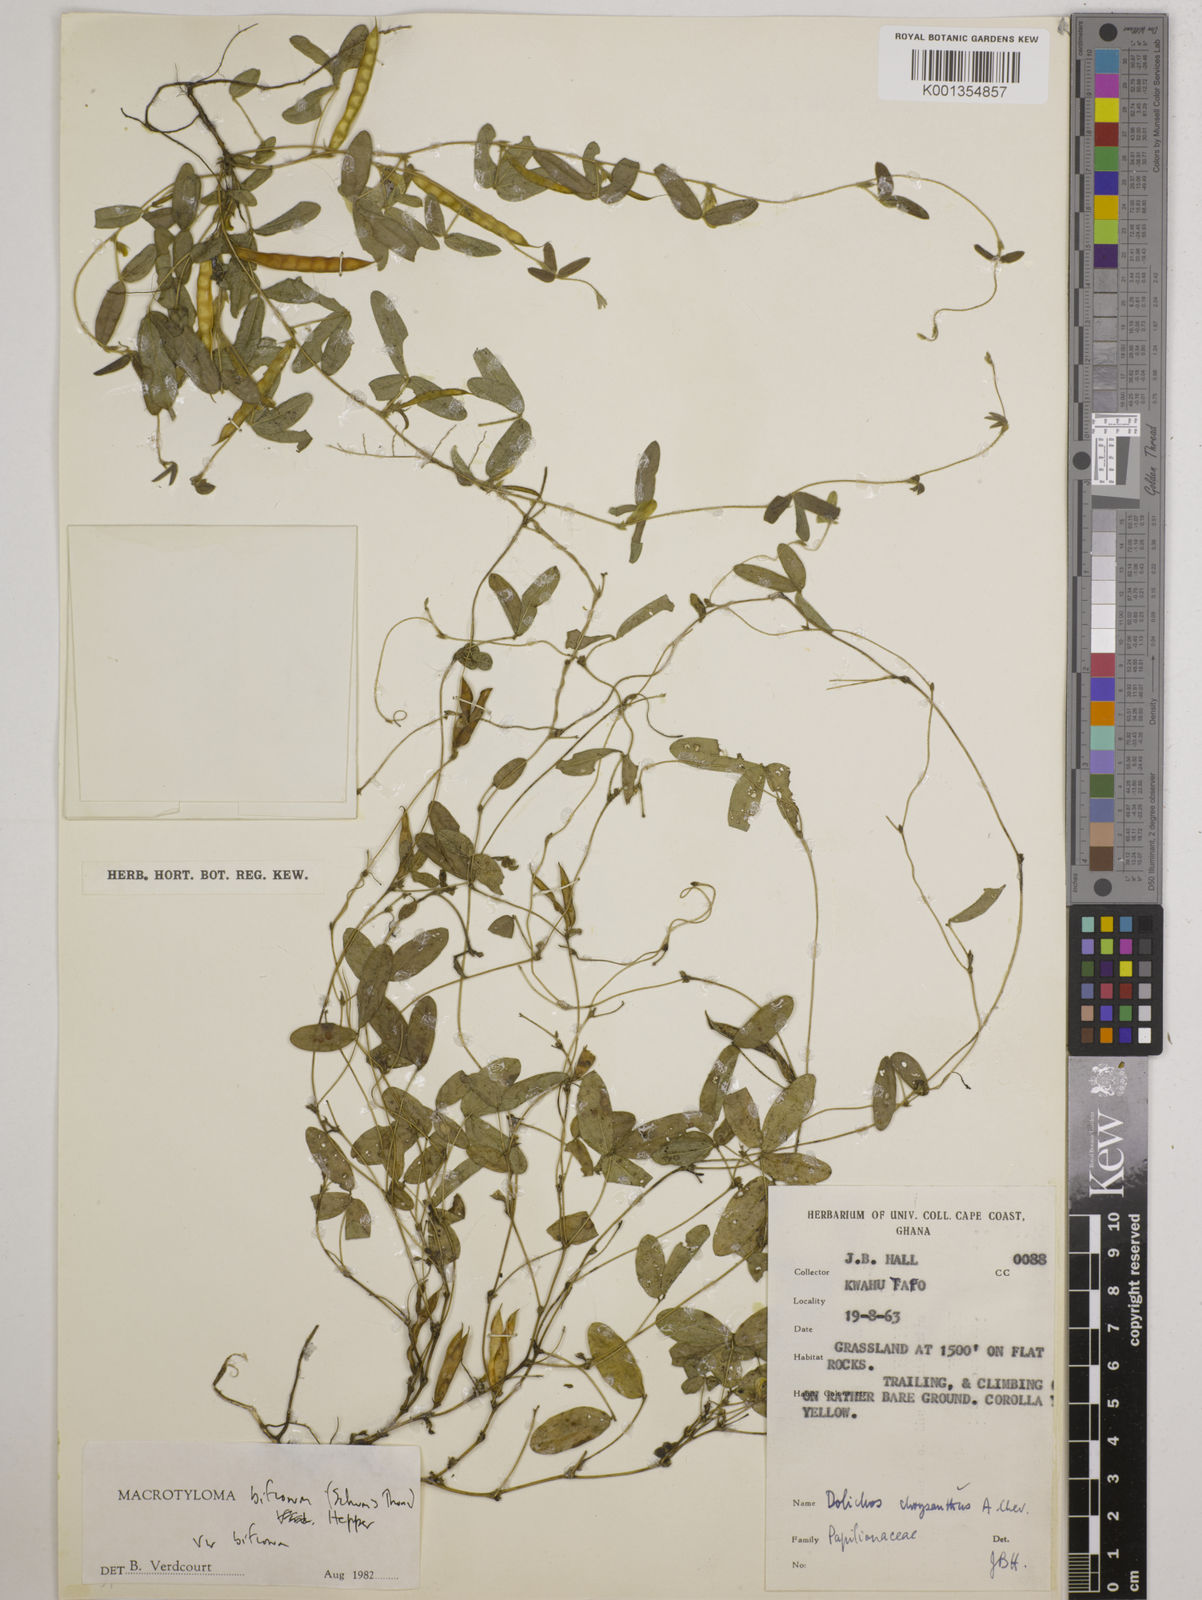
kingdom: Plantae
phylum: Tracheophyta
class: Magnoliopsida
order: Fabales
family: Fabaceae
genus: Macrotyloma
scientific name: Macrotyloma biflorum
